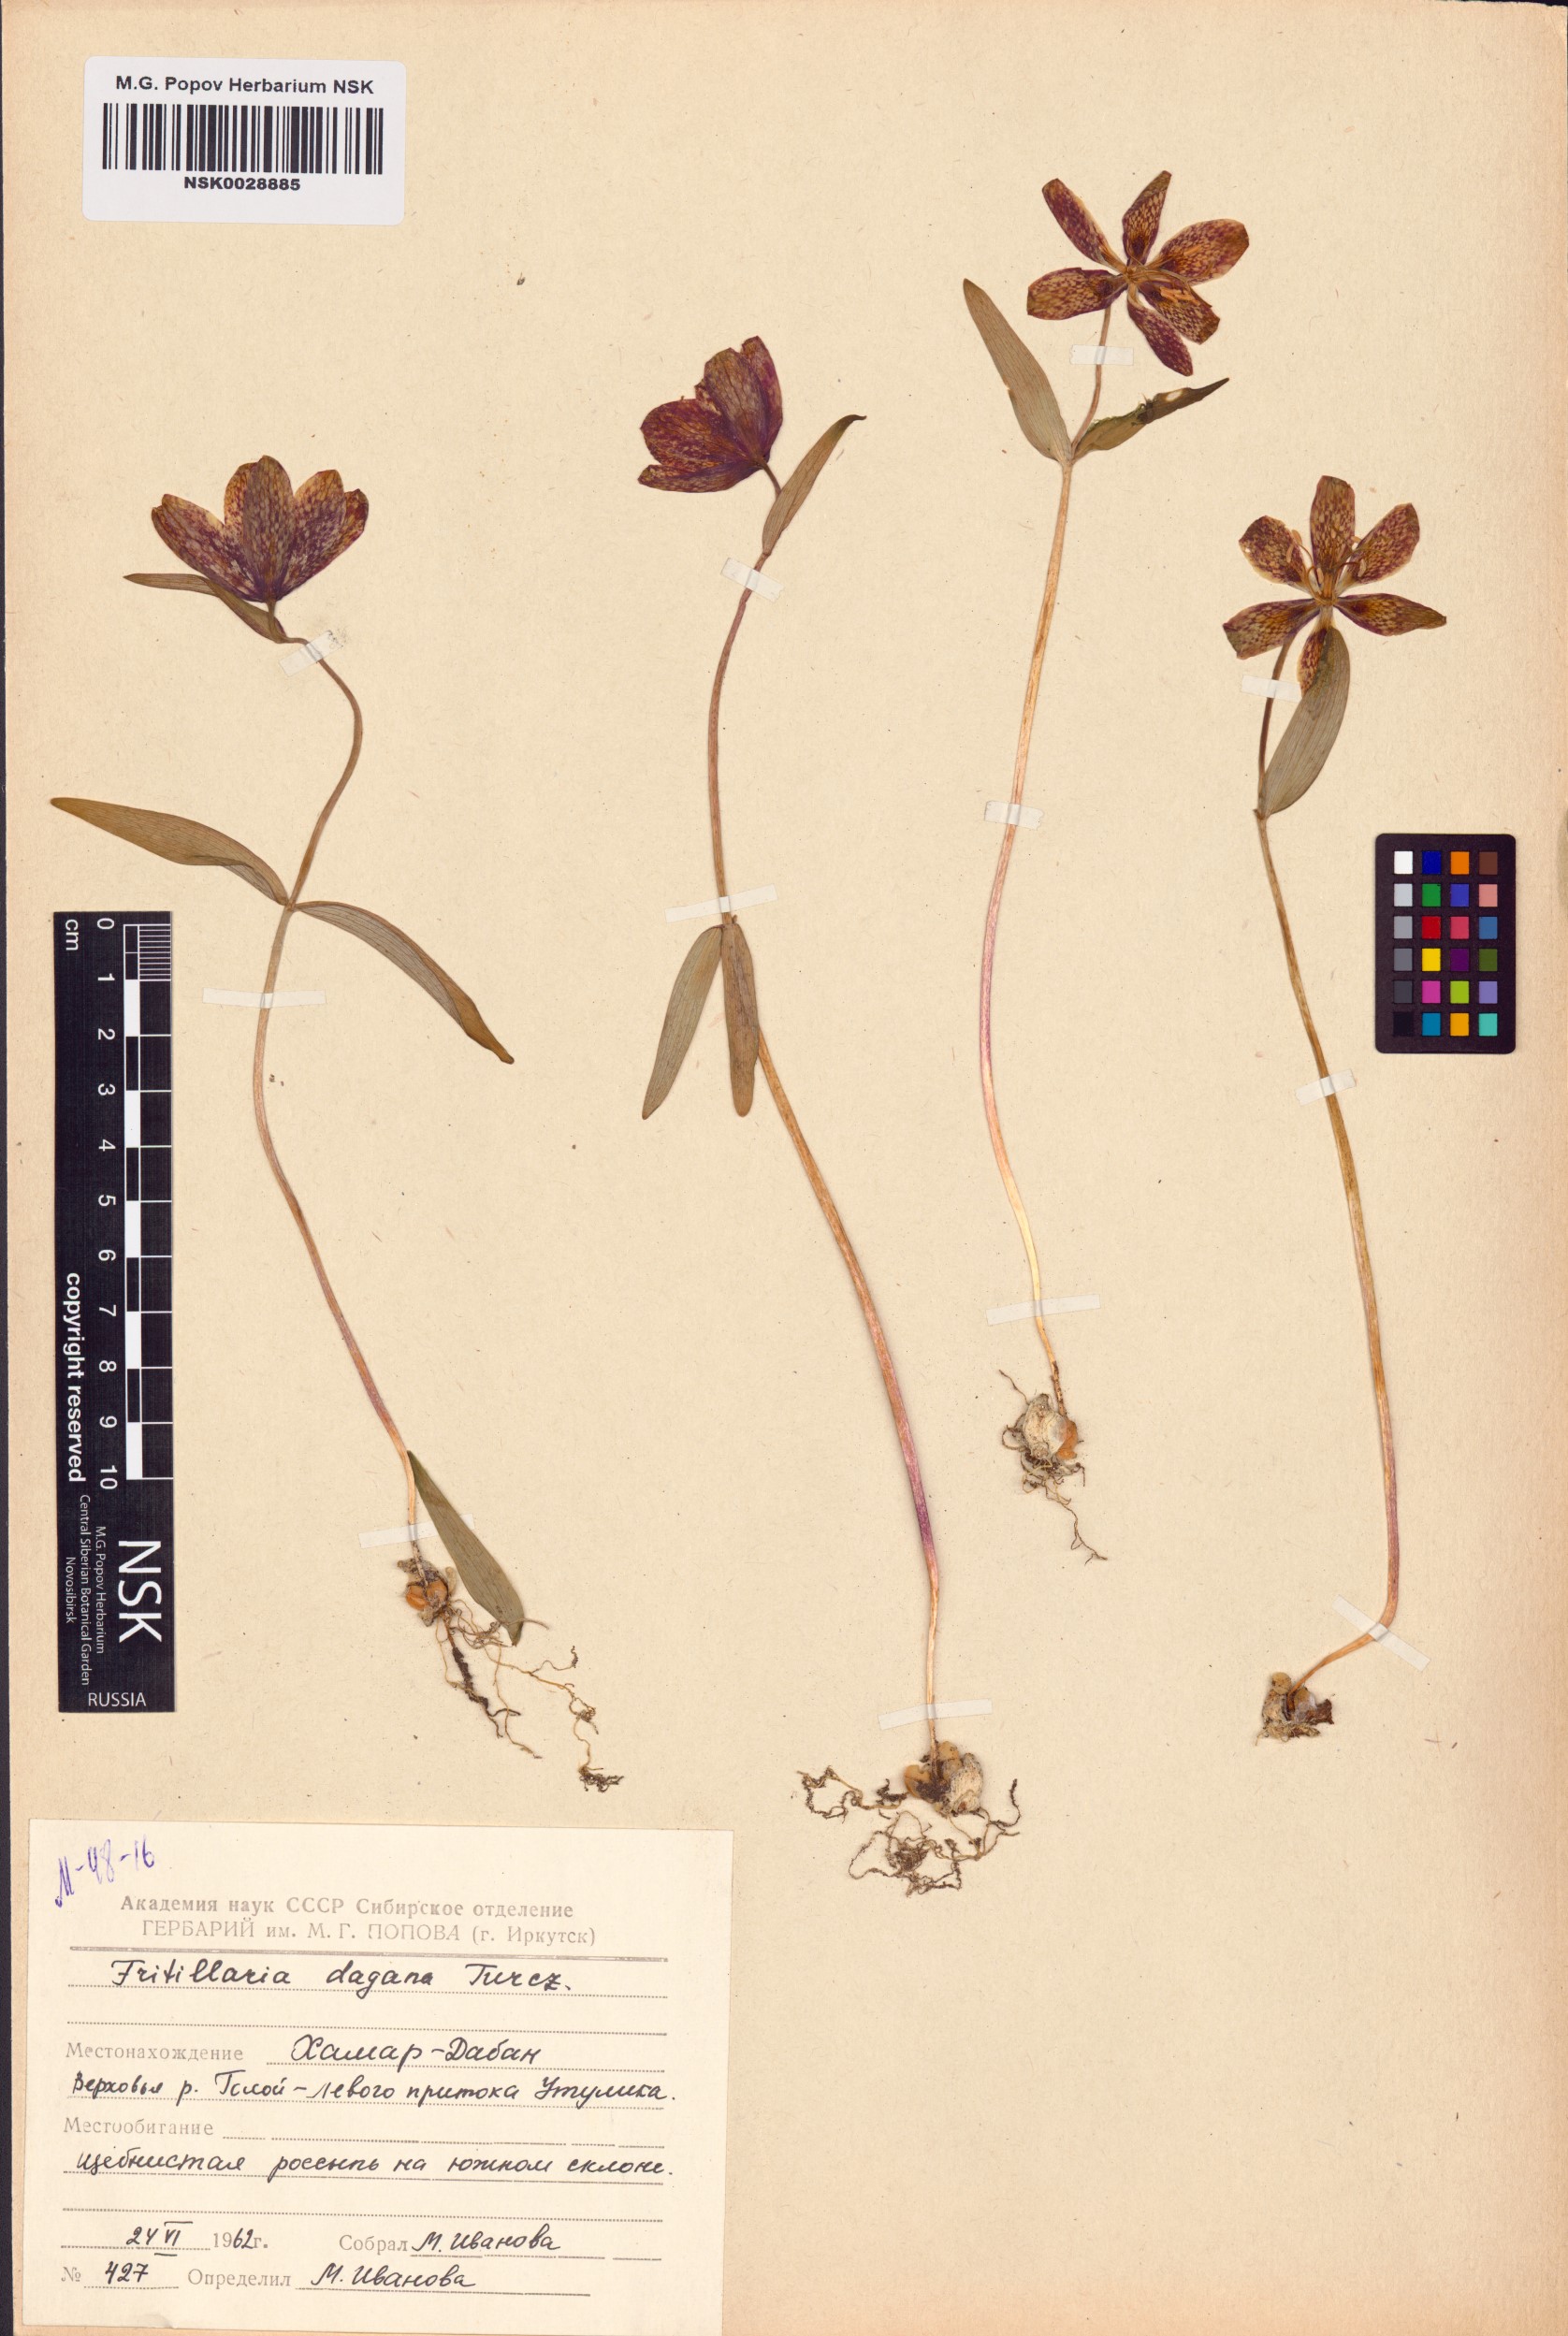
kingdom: Plantae
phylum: Tracheophyta
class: Liliopsida
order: Liliales
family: Liliaceae
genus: Fritillaria
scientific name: Fritillaria dagana
